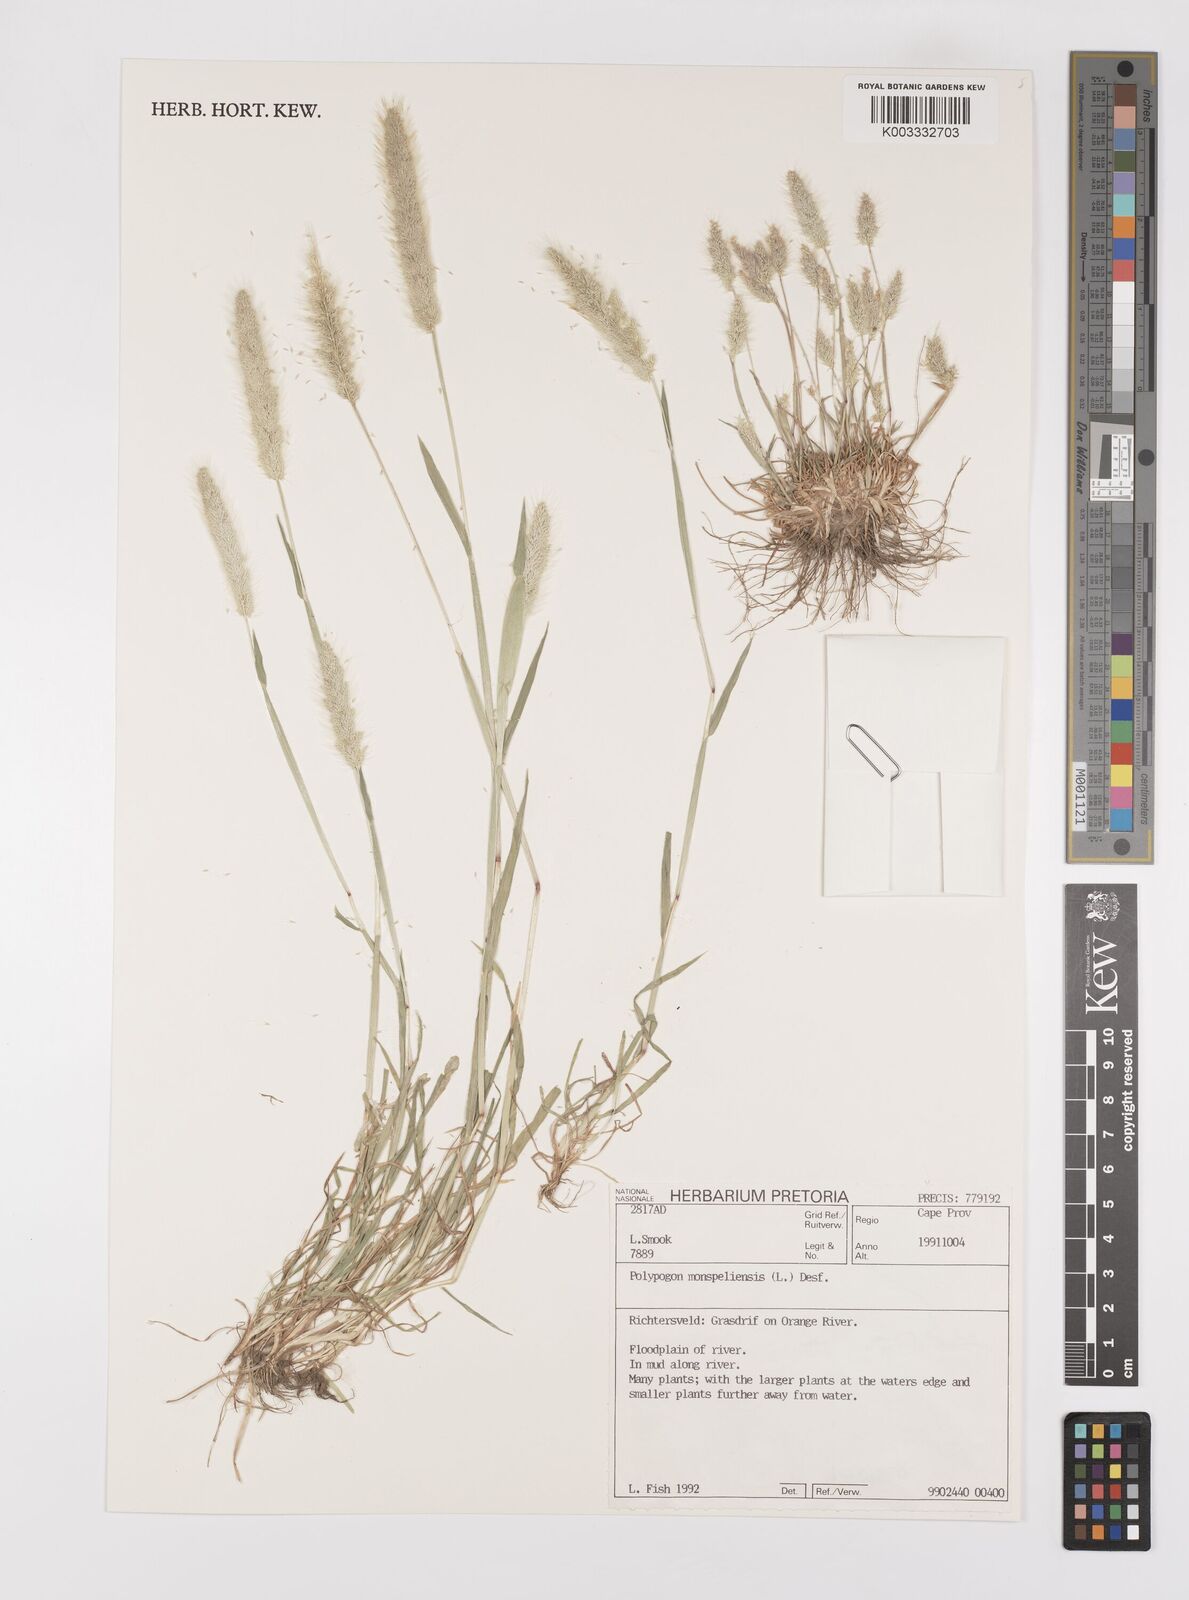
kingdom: Plantae
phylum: Tracheophyta
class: Liliopsida
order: Poales
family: Poaceae
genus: Polypogon
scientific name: Polypogon monspeliensis
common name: Annual rabbitsfoot grass
